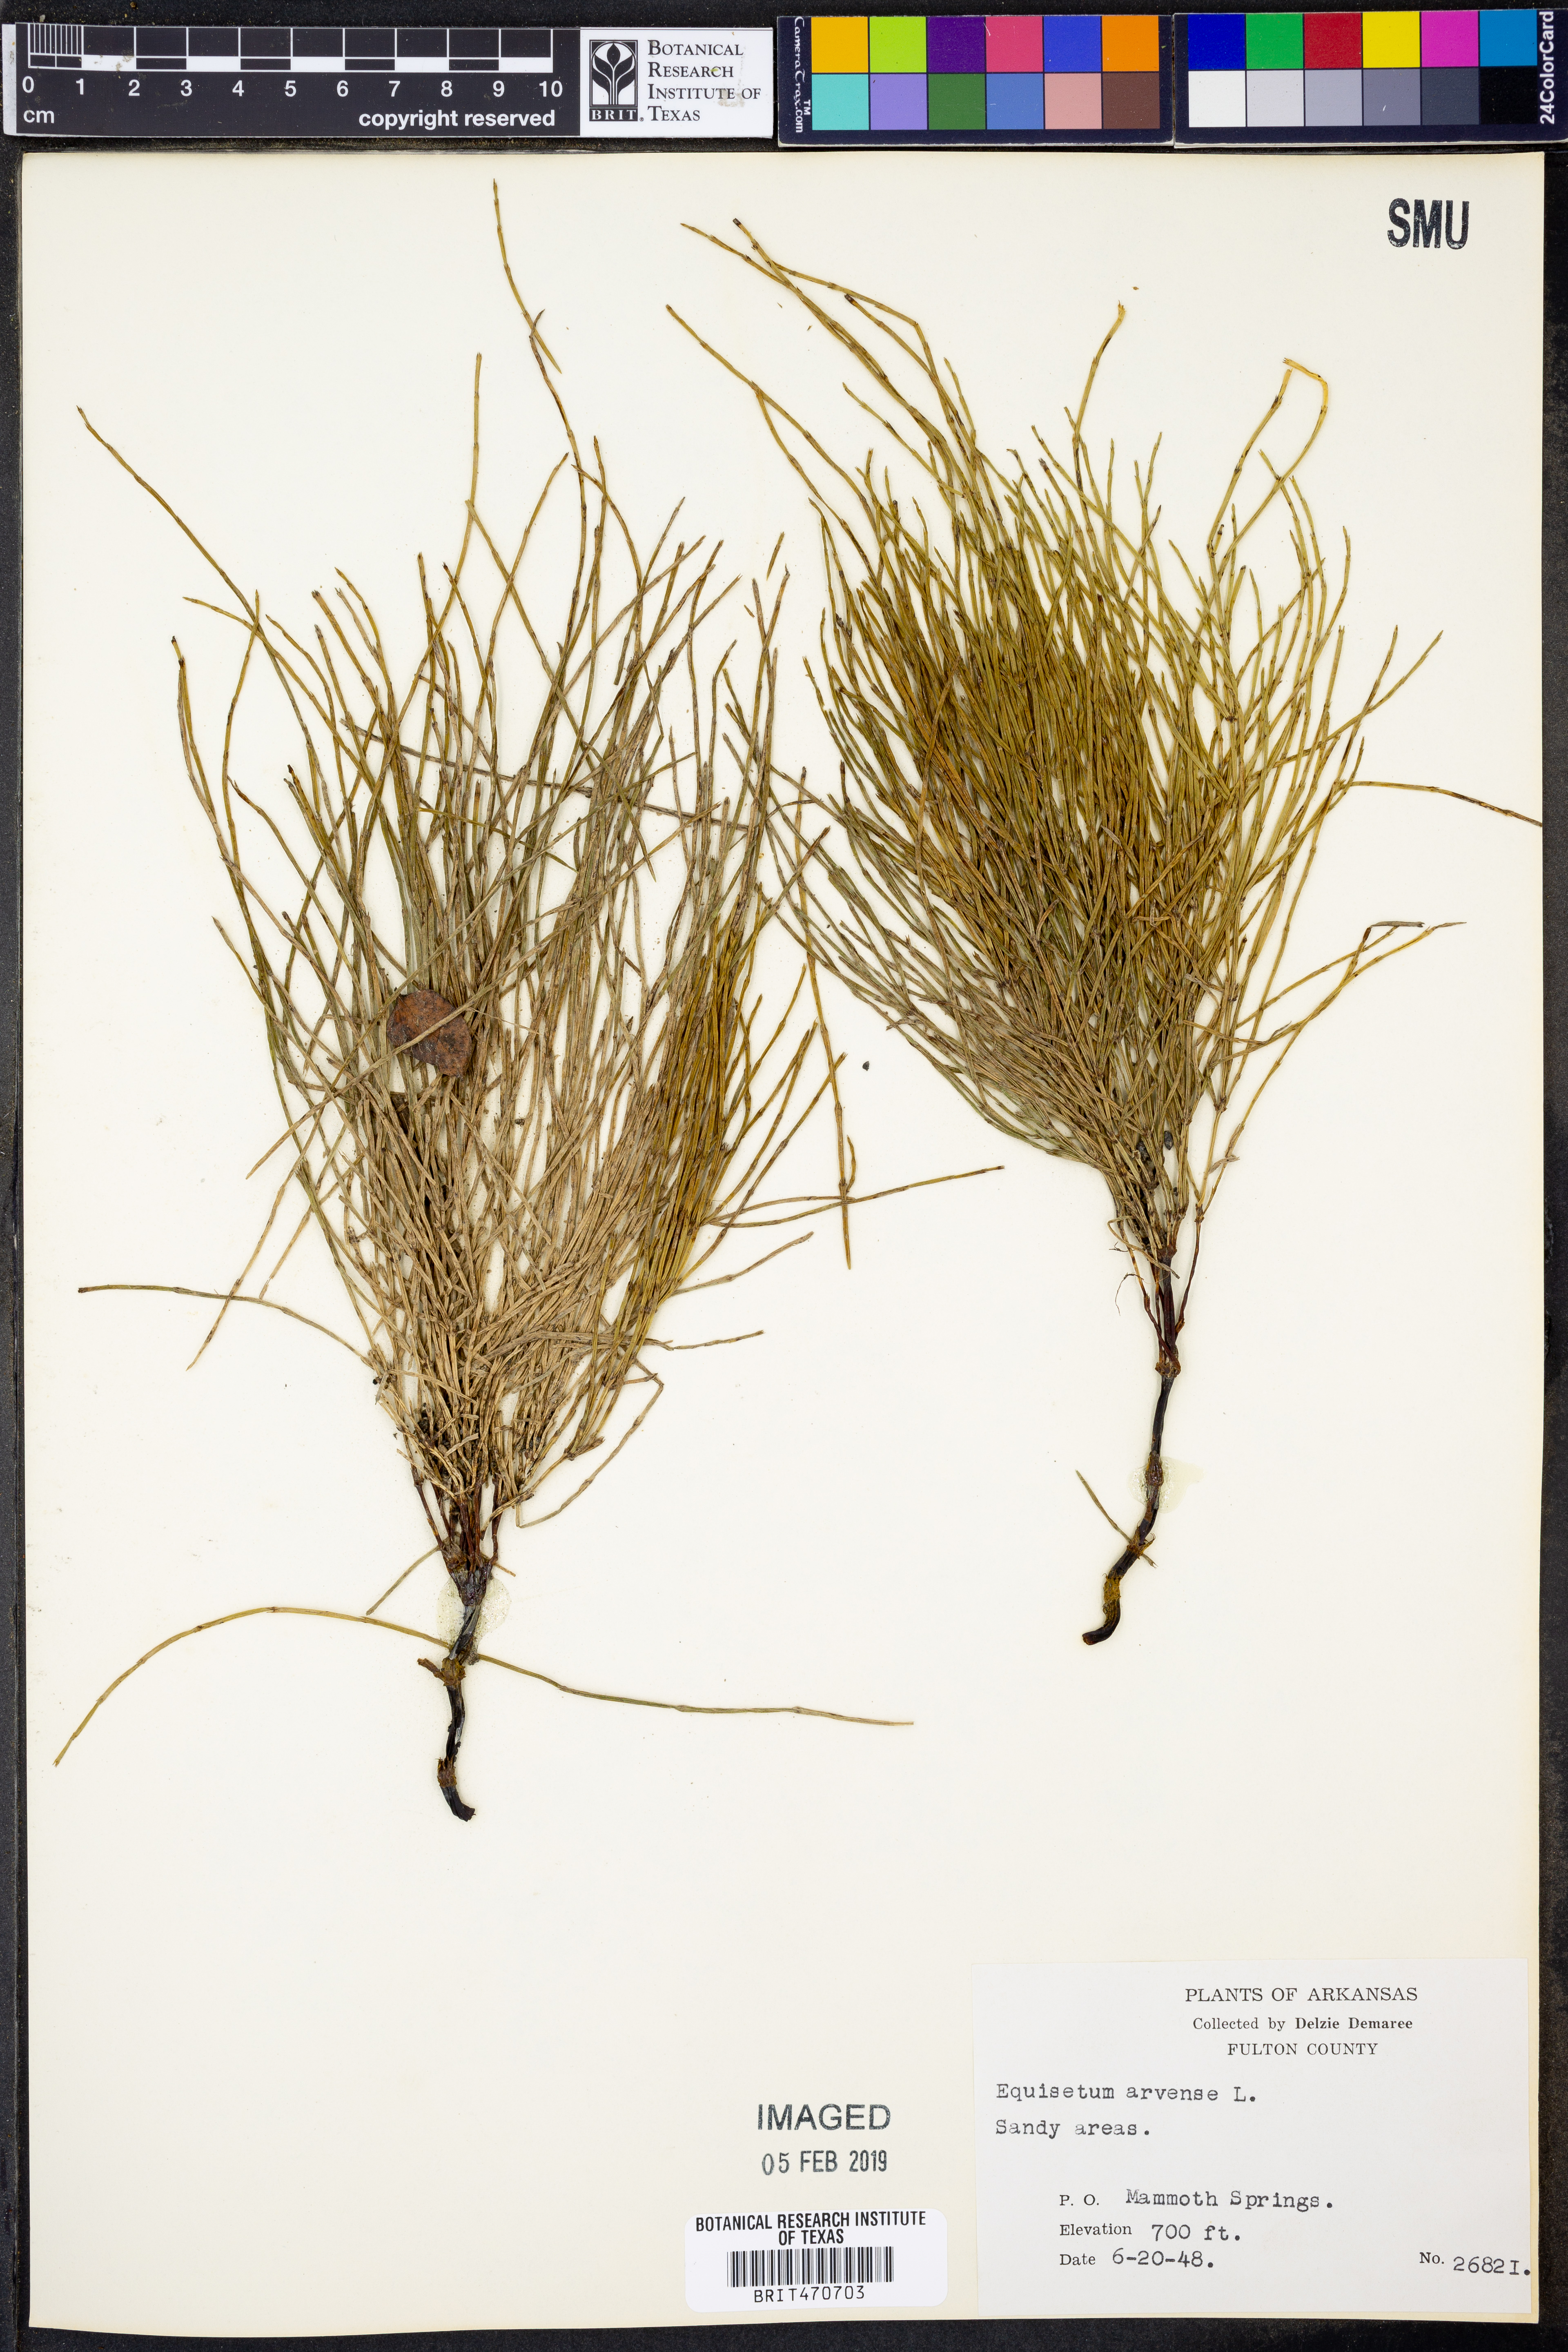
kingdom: Plantae
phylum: Tracheophyta
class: Polypodiopsida
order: Equisetales
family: Equisetaceae
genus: Equisetum
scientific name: Equisetum arvense
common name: Field horsetail
